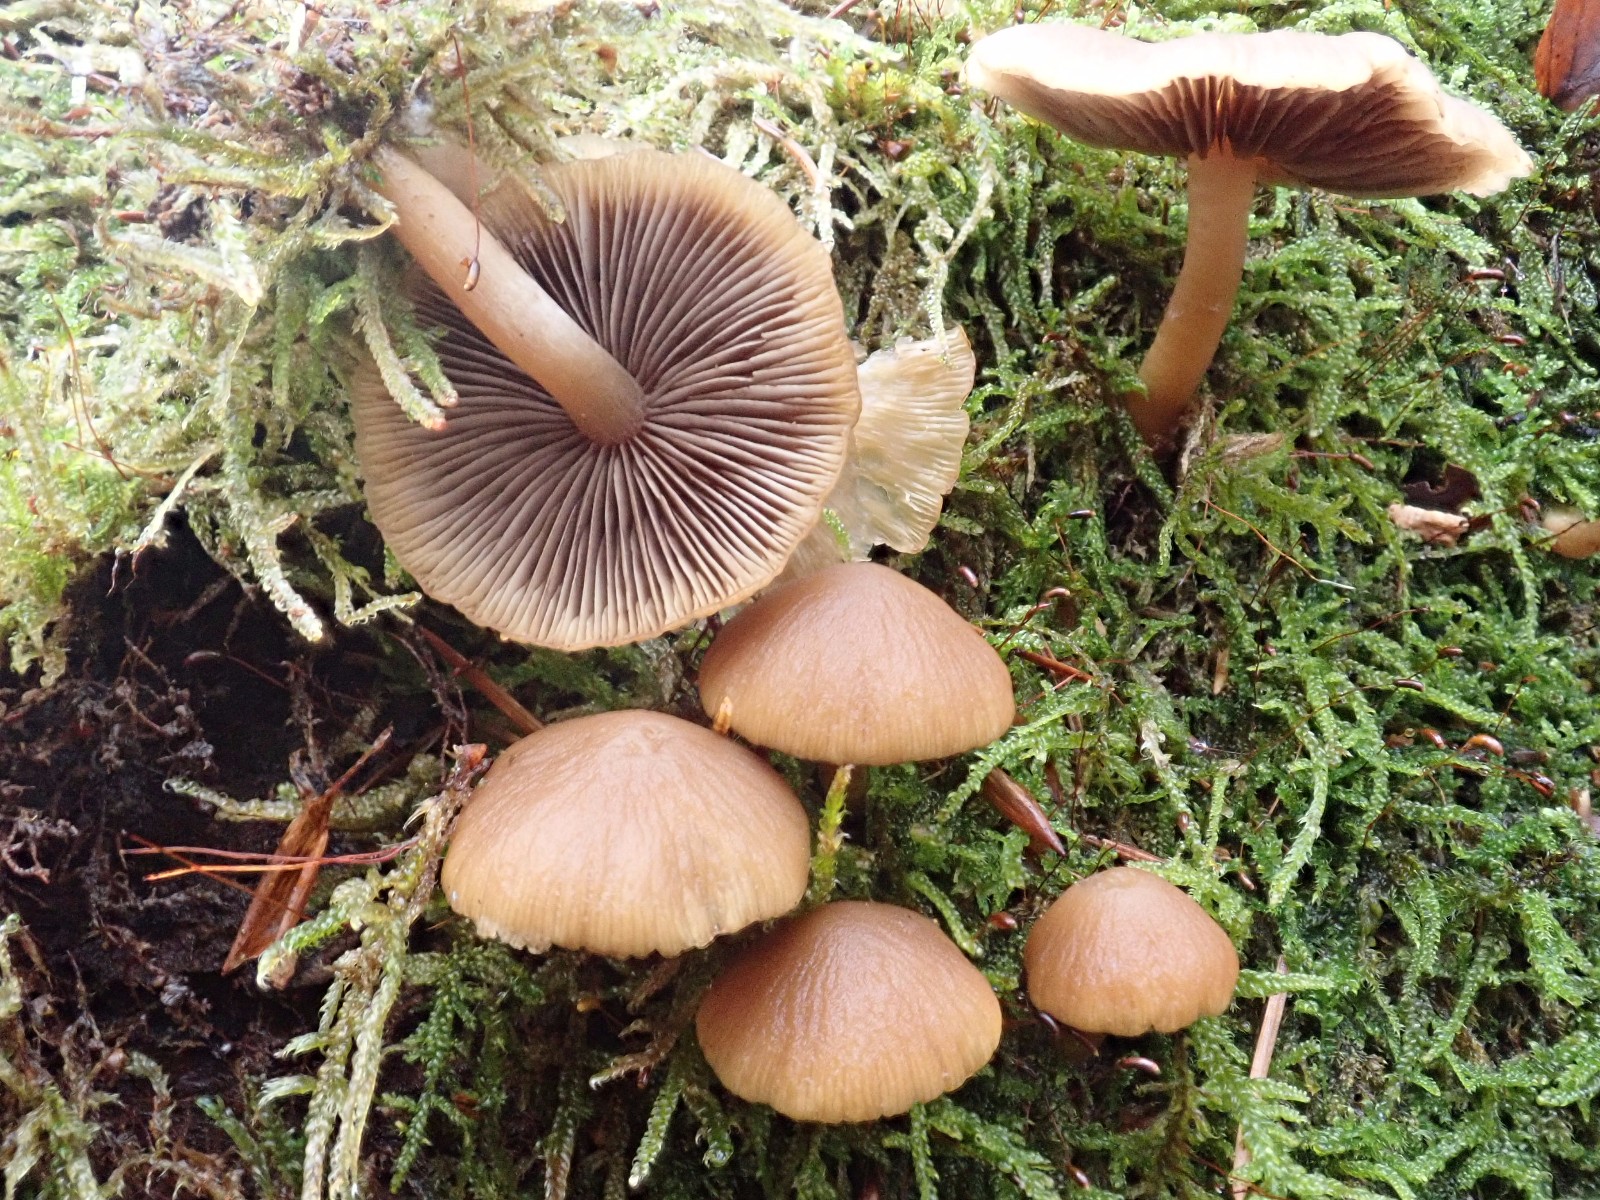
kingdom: Fungi
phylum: Basidiomycota
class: Agaricomycetes
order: Agaricales
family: Psathyrellaceae
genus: Psathyrella
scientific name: Psathyrella piluliformis
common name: lysstokket mørkhat
